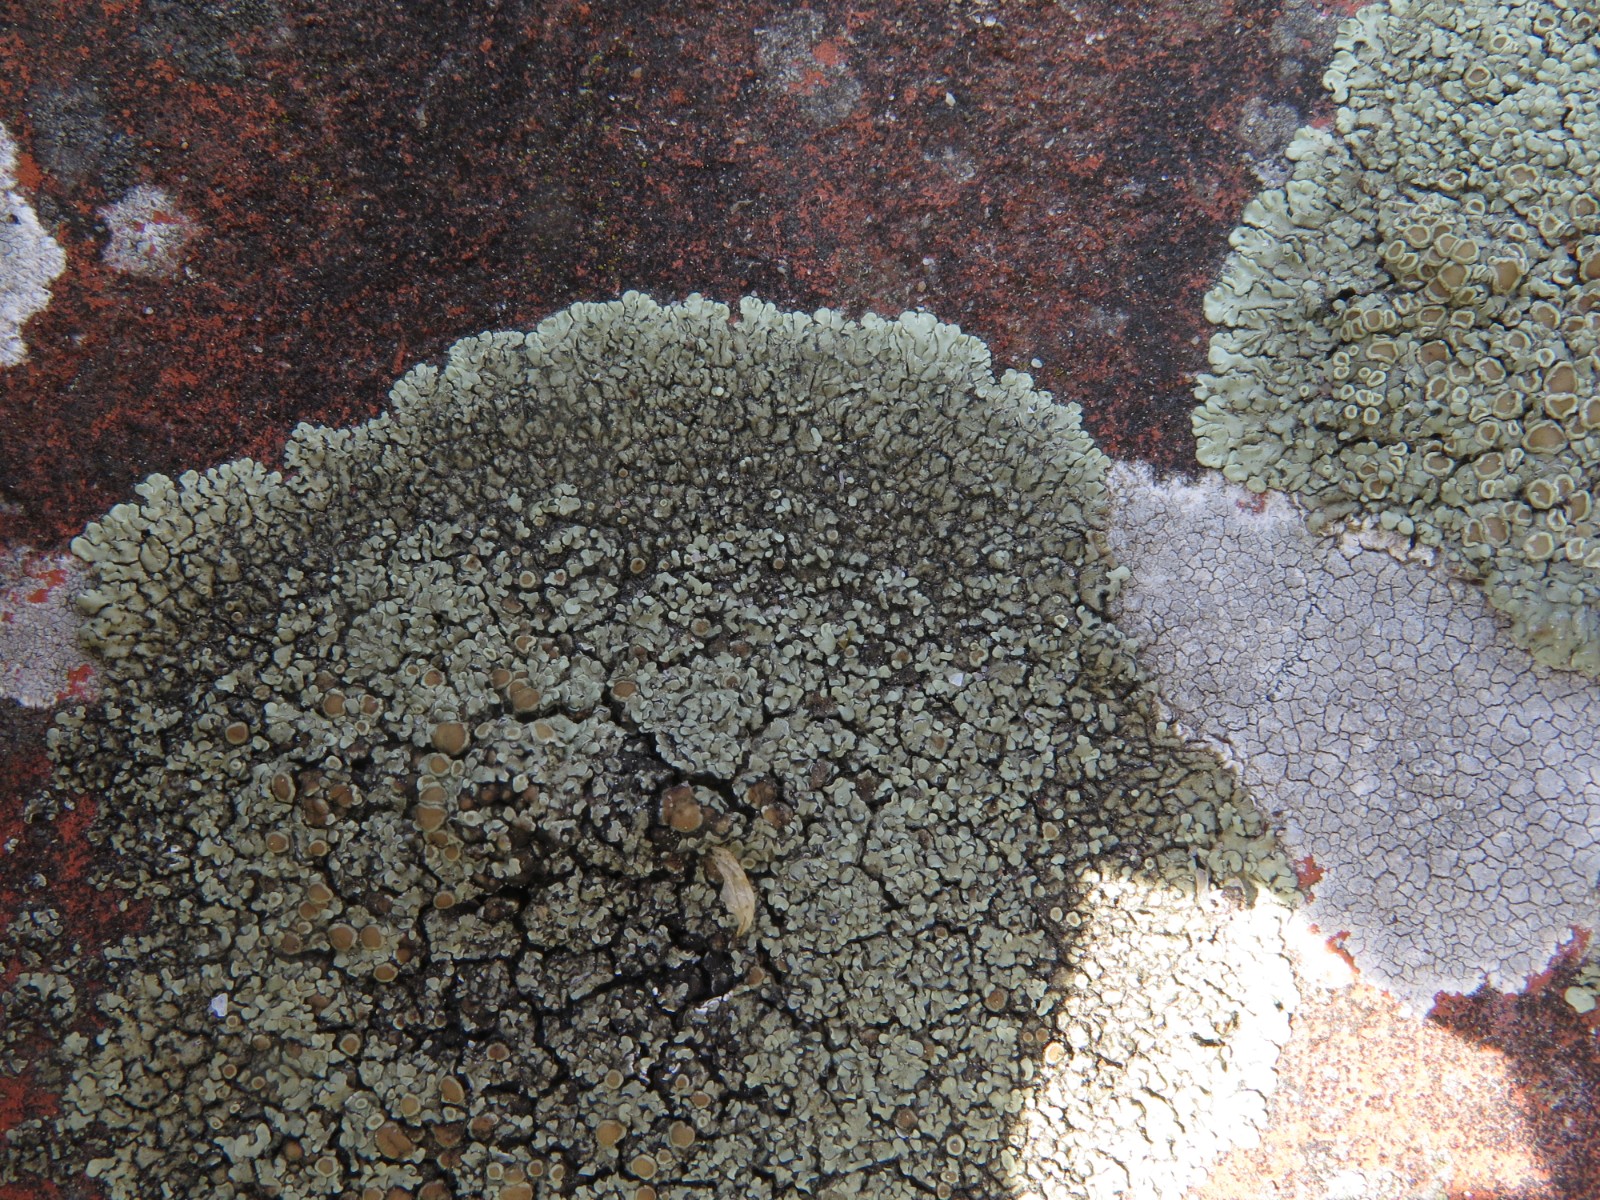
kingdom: Fungi
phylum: Ascomycota
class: Lecanoromycetes
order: Lecanorales
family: Lecanoraceae
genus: Protoparmeliopsis
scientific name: Protoparmeliopsis muralis
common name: randfliget kantskivelav
